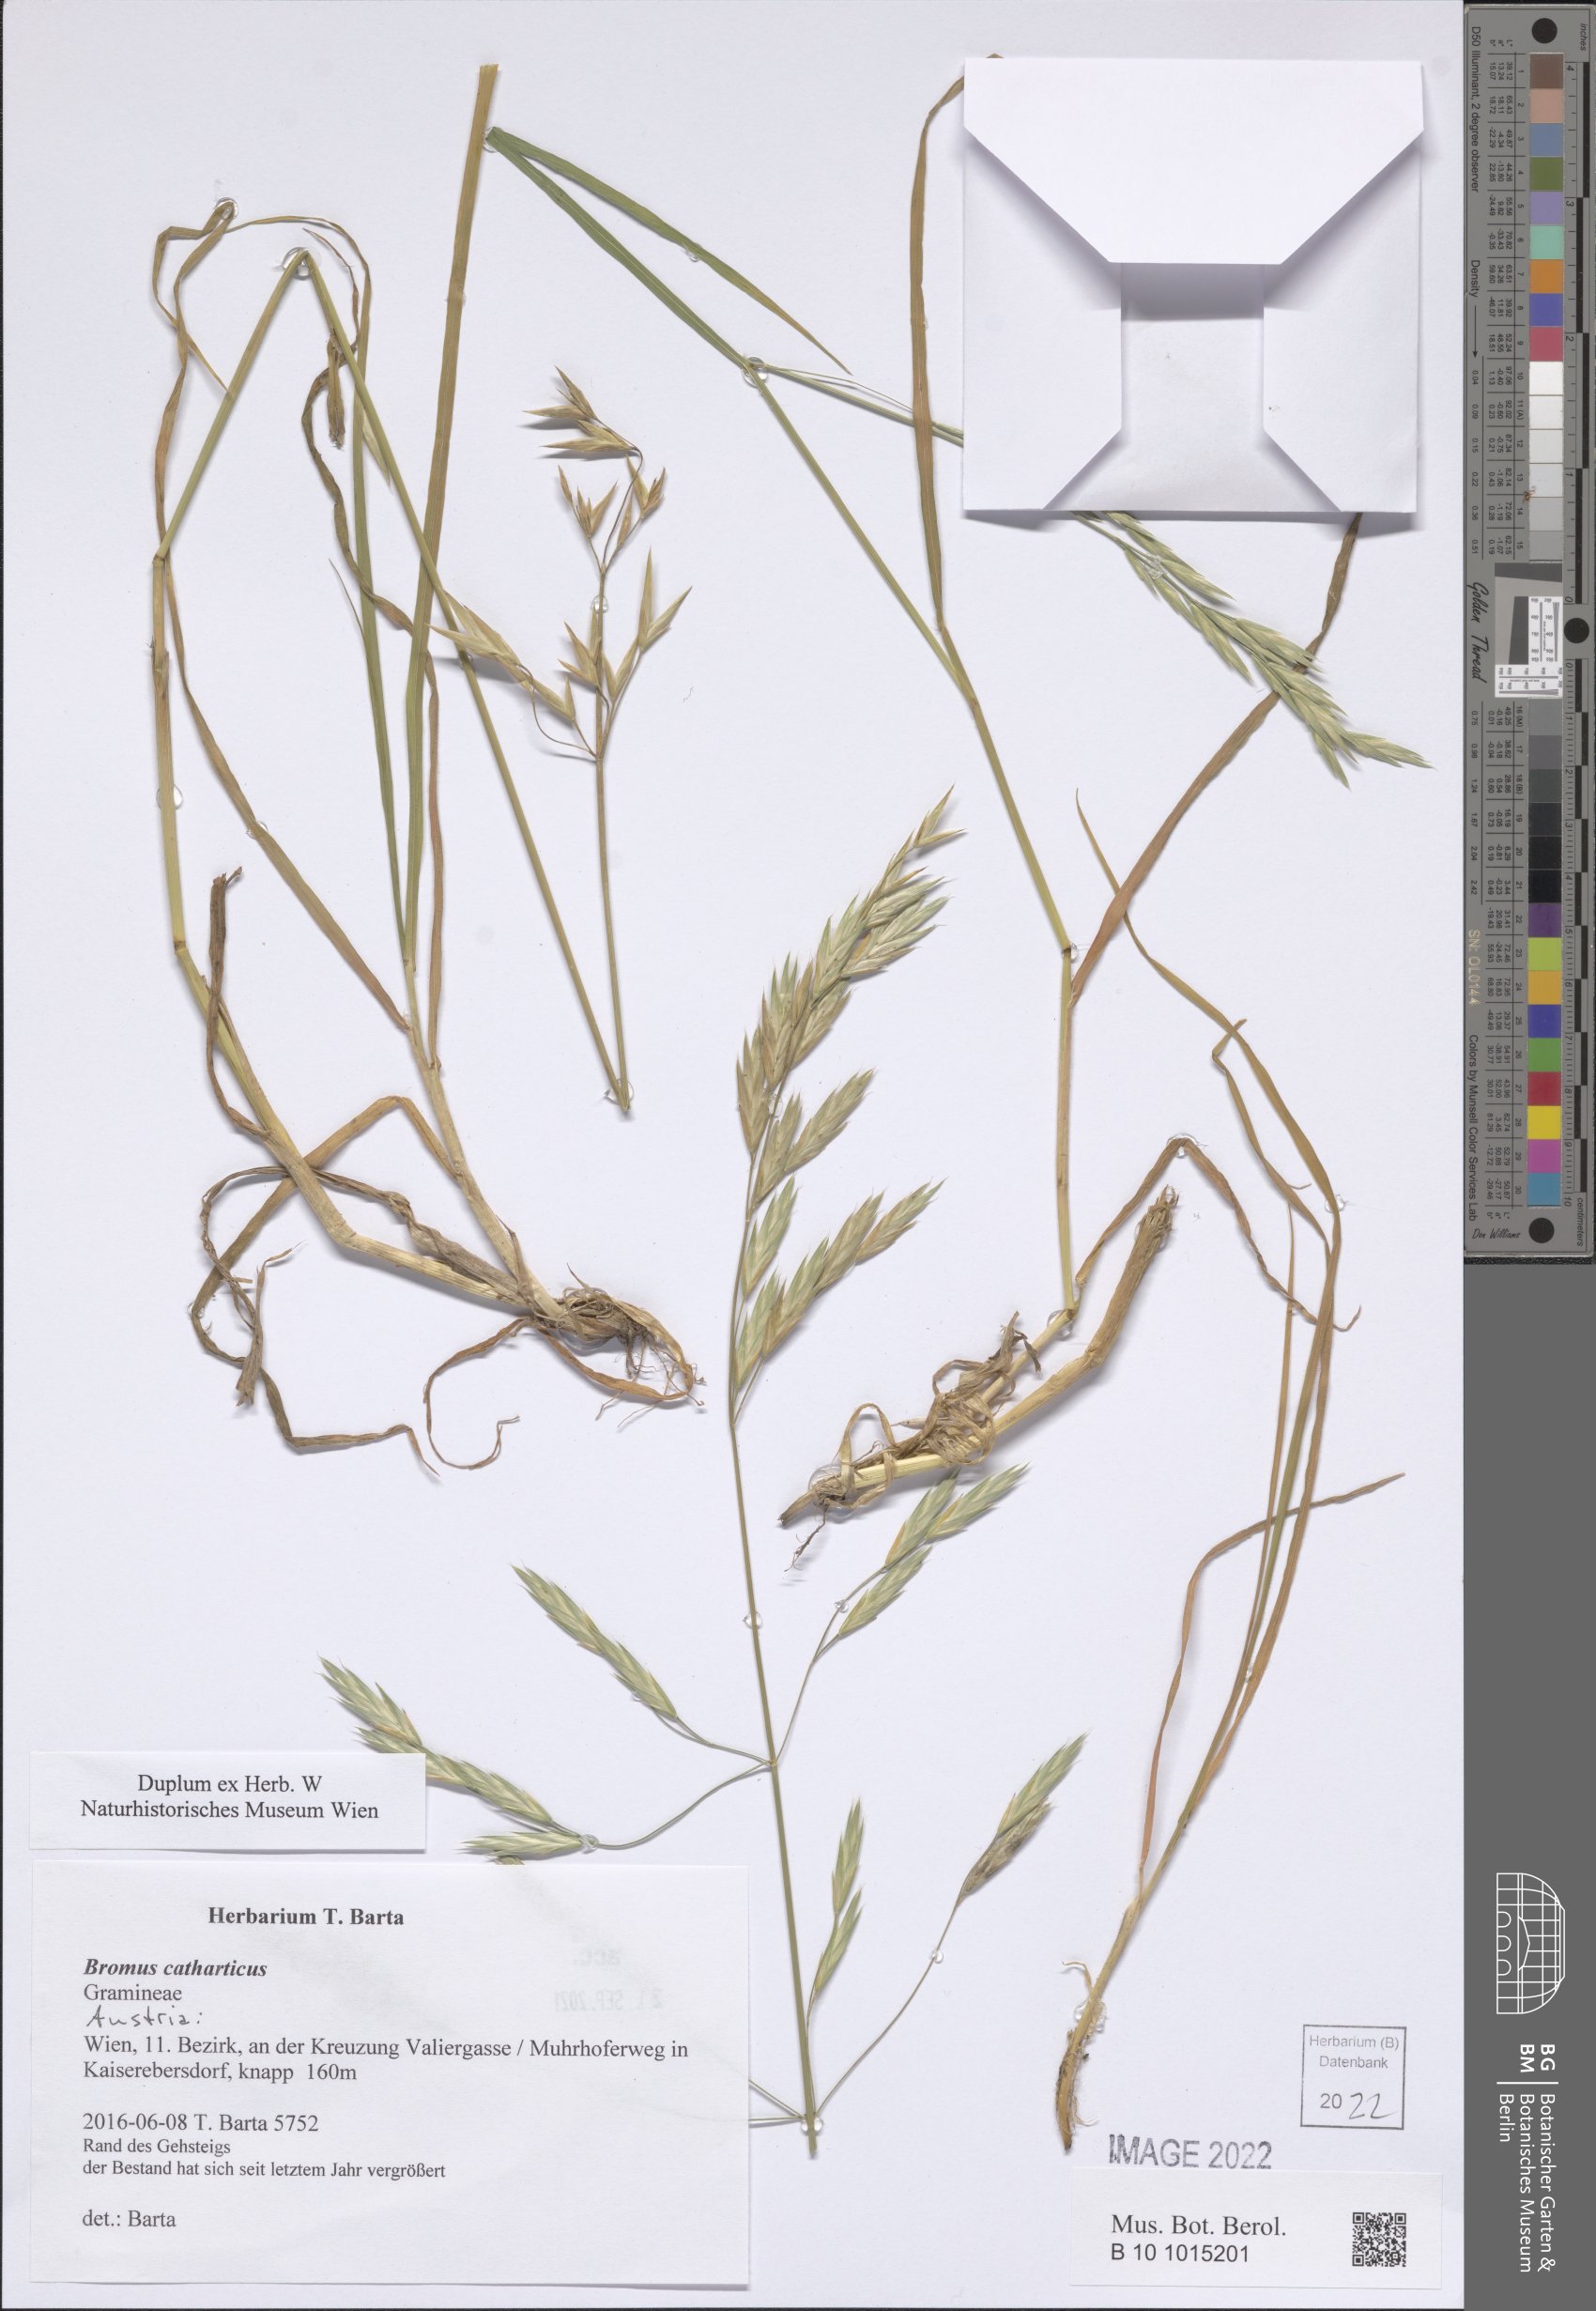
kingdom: Plantae
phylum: Tracheophyta
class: Liliopsida
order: Poales
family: Poaceae
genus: Bromus
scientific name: Bromus catharticus
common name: Rescuegrass
